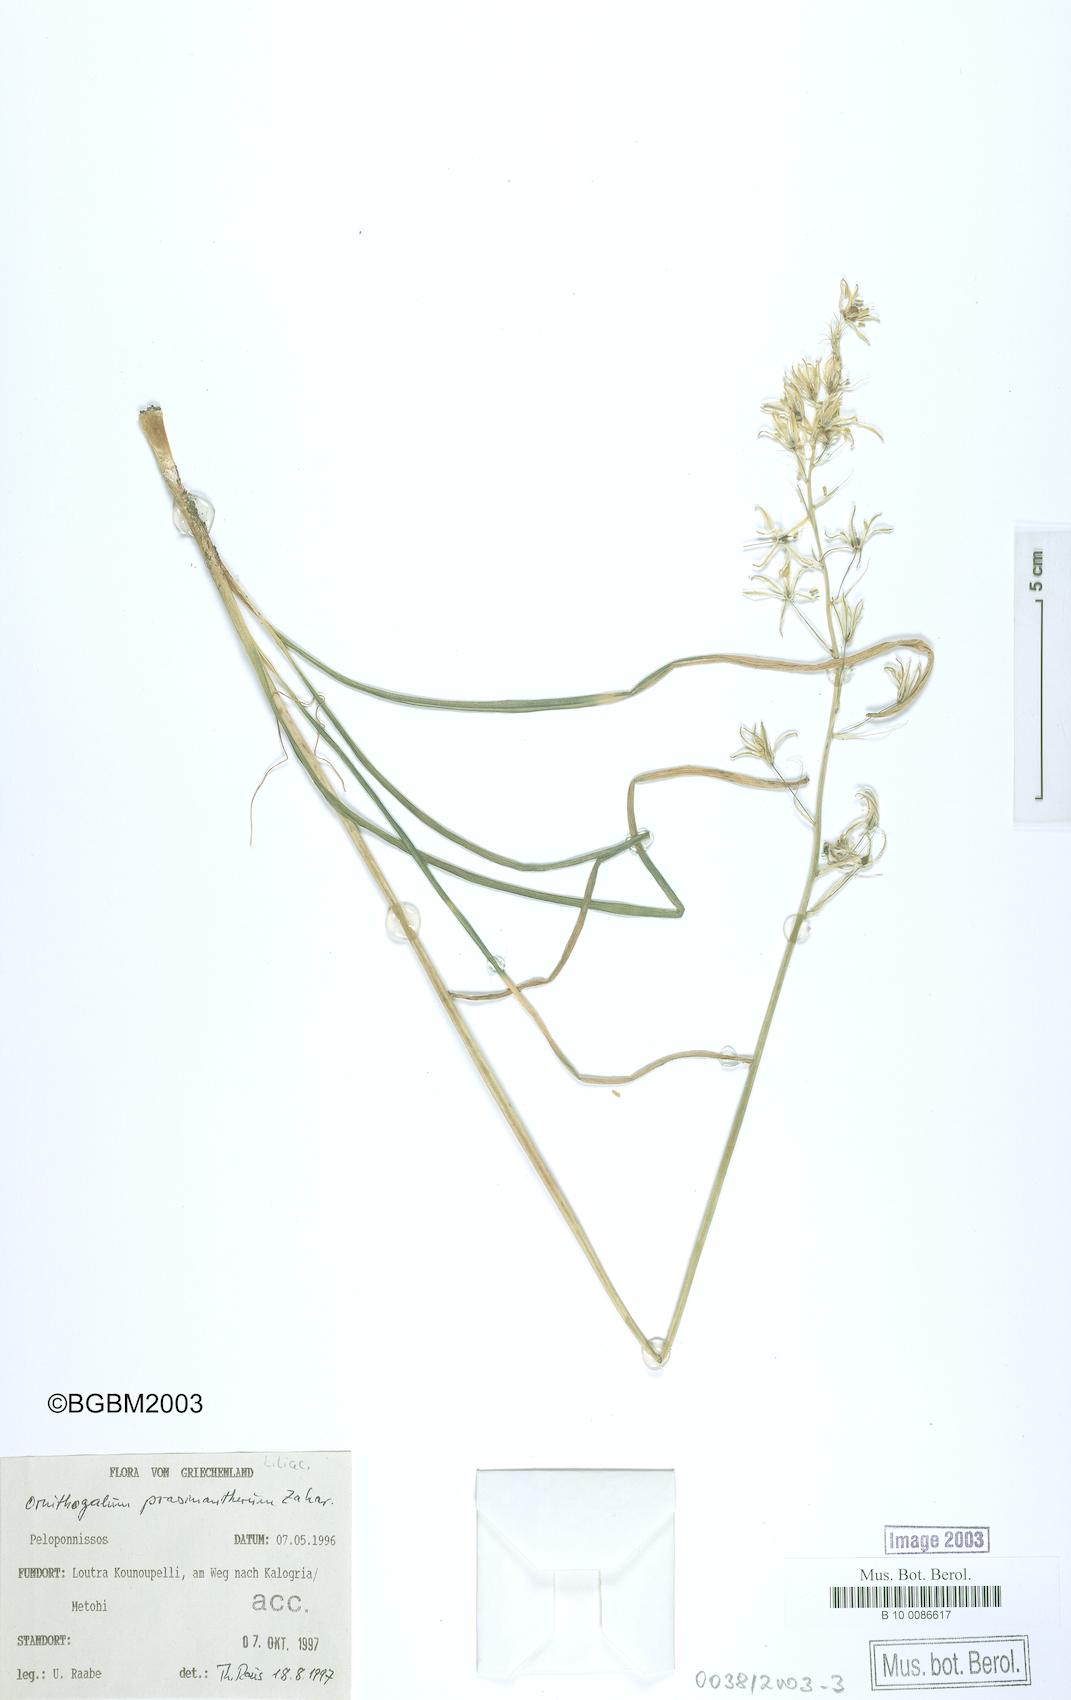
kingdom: Plantae
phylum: Tracheophyta
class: Liliopsida
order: Asparagales
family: Asparagaceae
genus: Ornithogalum
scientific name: Ornithogalum prasinantherum
